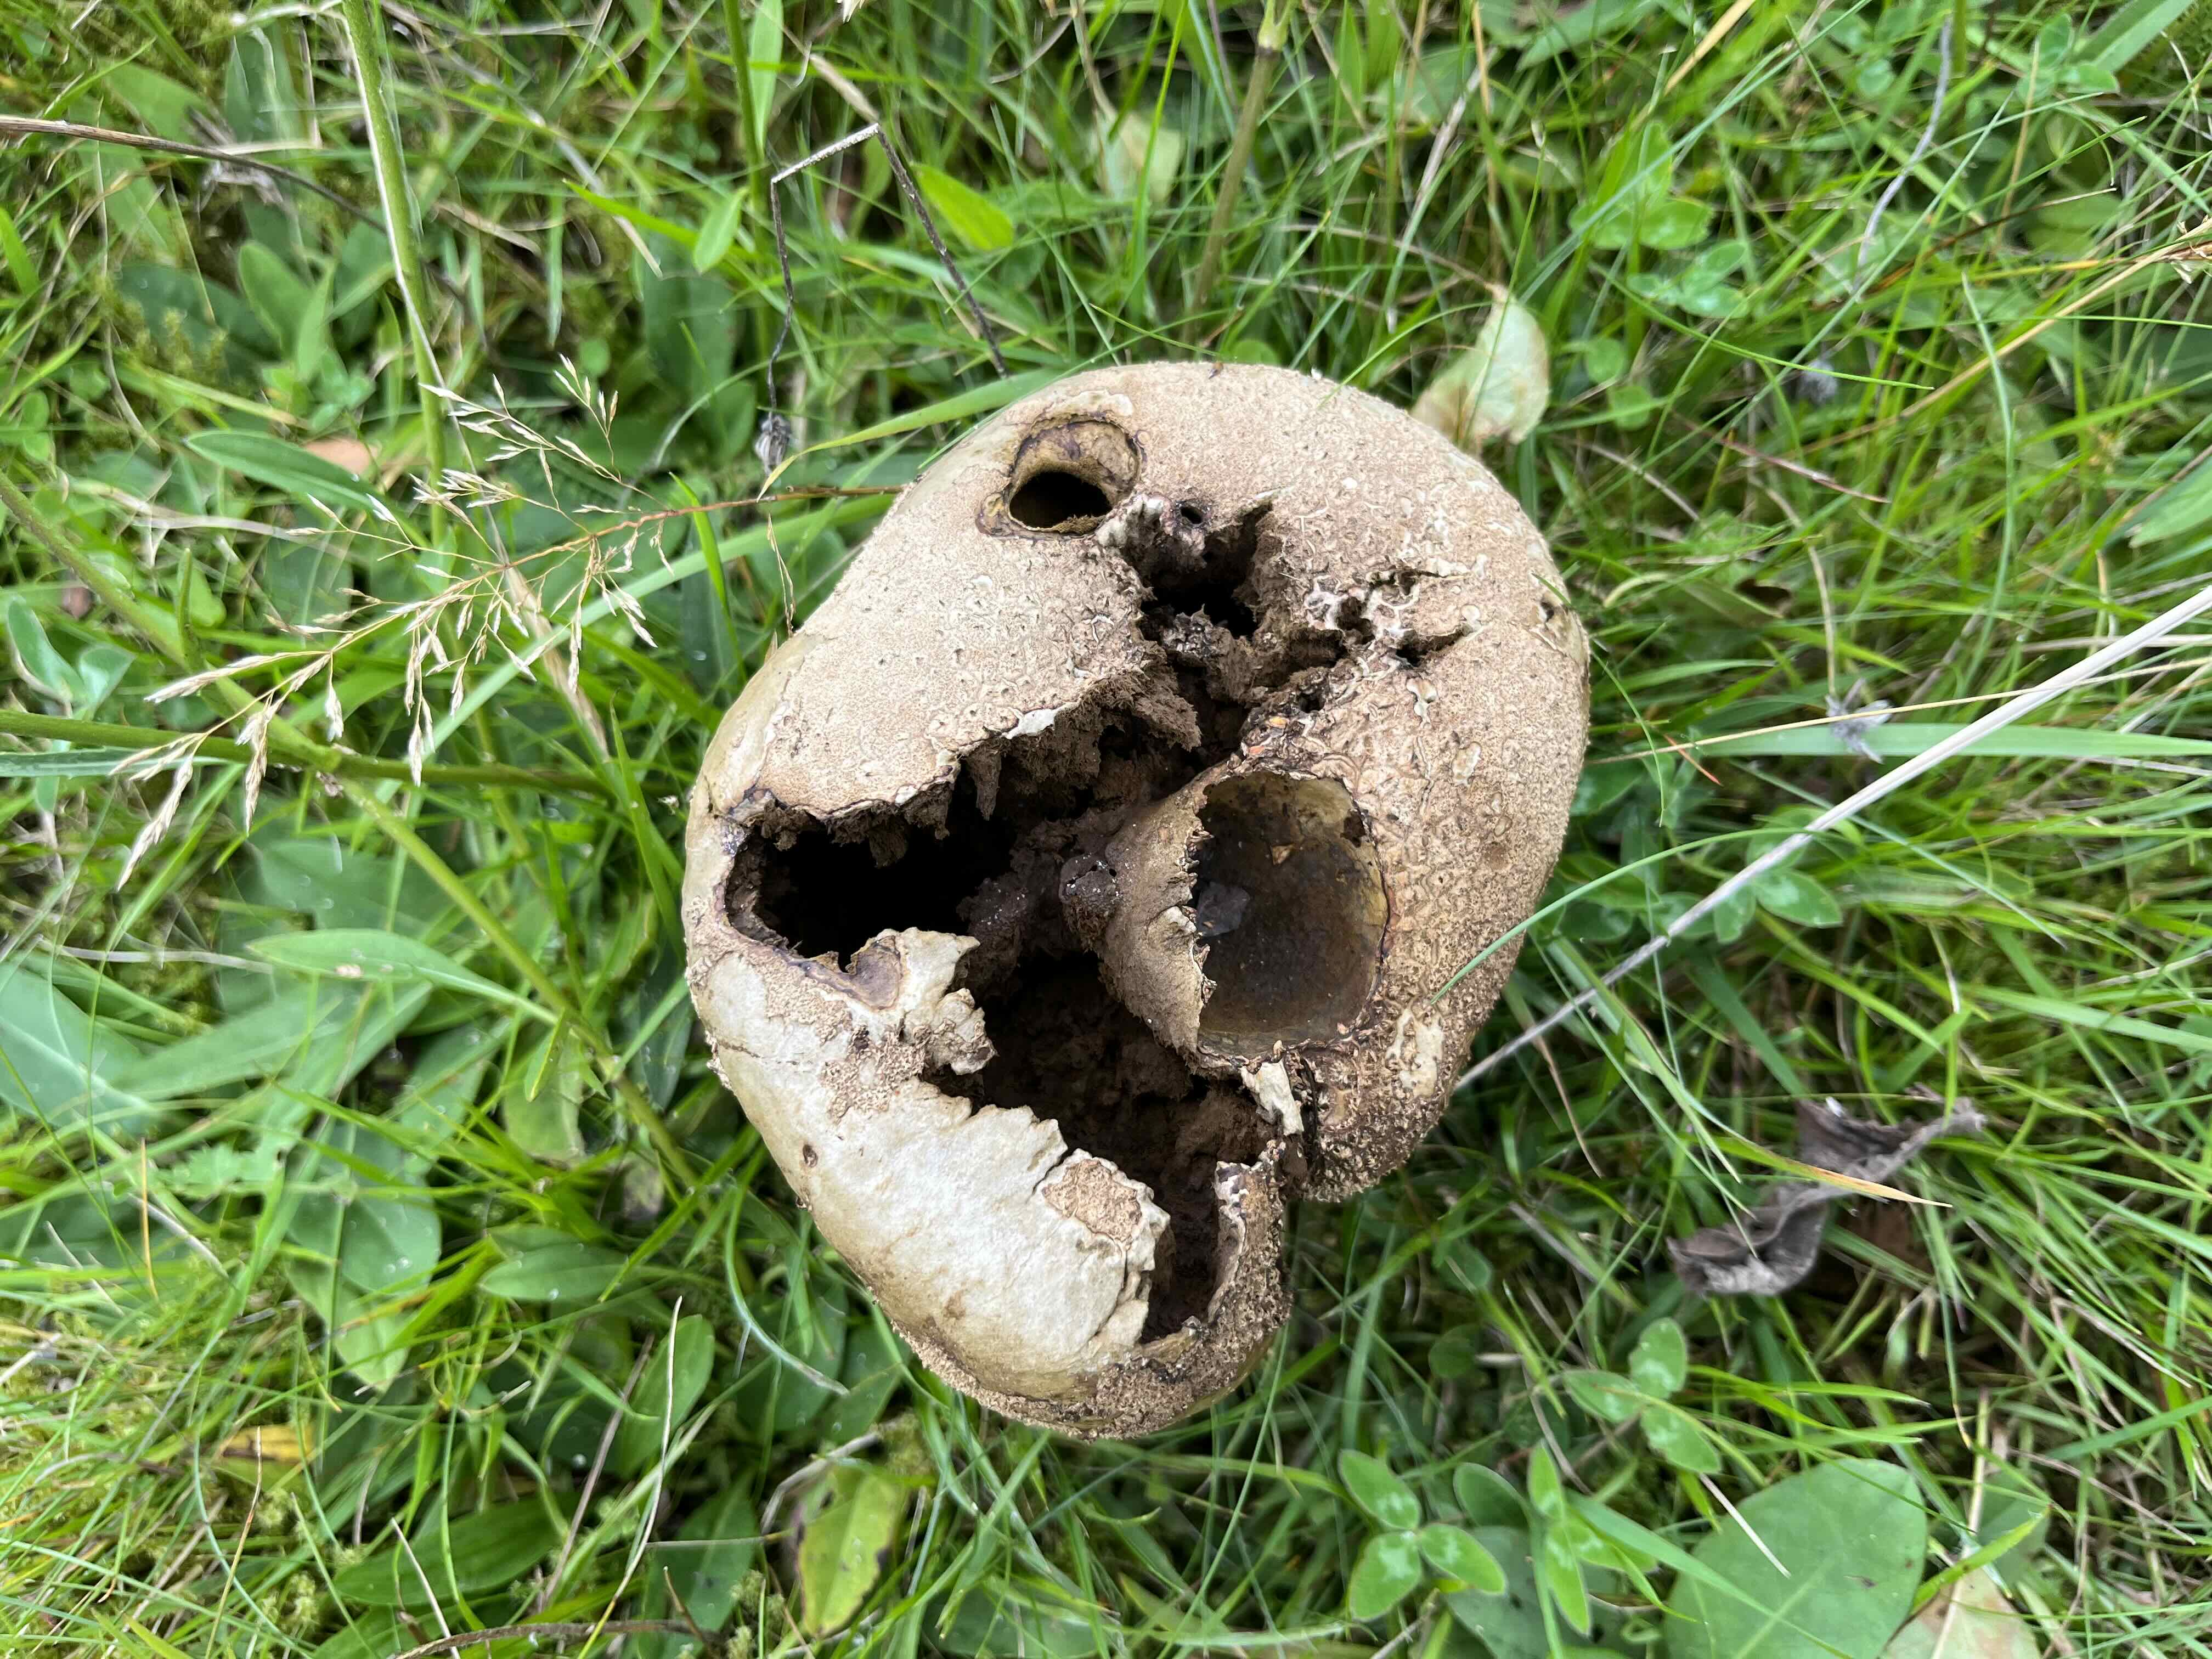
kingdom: Fungi
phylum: Basidiomycota
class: Agaricomycetes
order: Agaricales
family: Lycoperdaceae
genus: Bovistella
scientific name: Bovistella utriformis
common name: skællet støvbold
